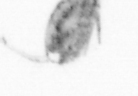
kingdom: Animalia
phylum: Arthropoda
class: Copepoda
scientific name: Copepoda
